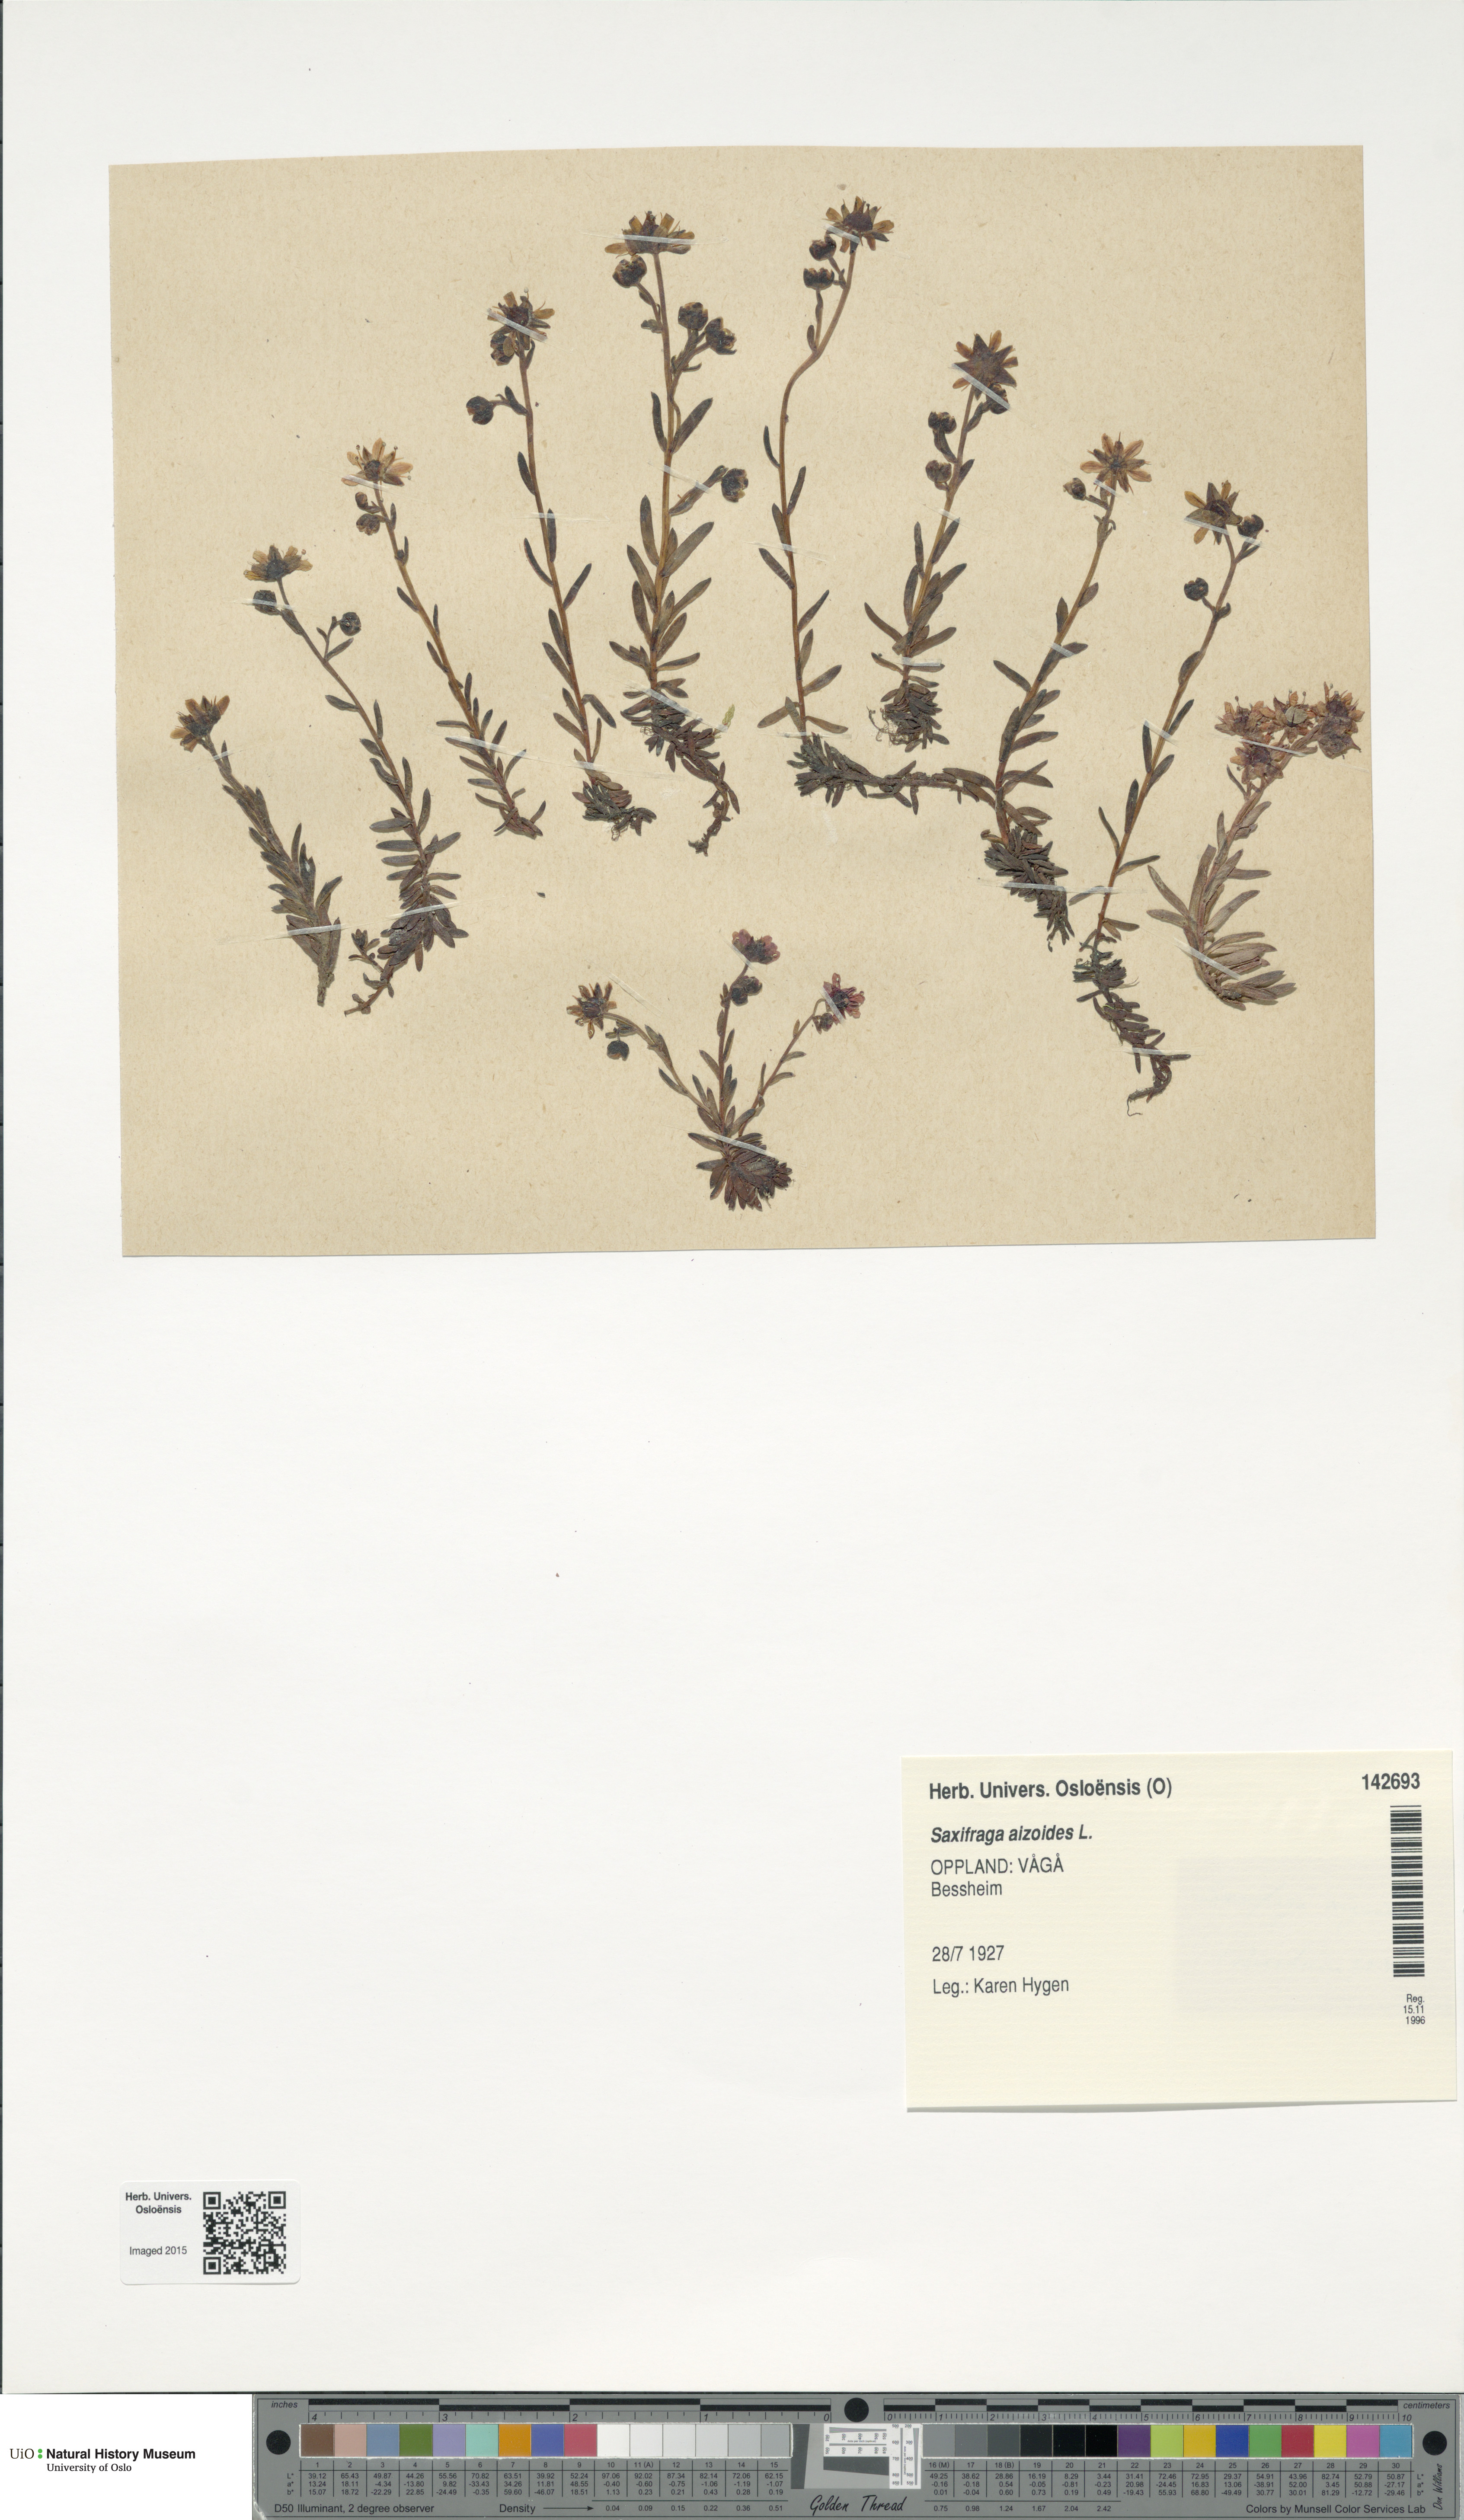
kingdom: Plantae
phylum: Tracheophyta
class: Magnoliopsida
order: Saxifragales
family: Saxifragaceae
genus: Saxifraga
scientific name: Saxifraga aizoides
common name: Yellow mountain saxifrage
